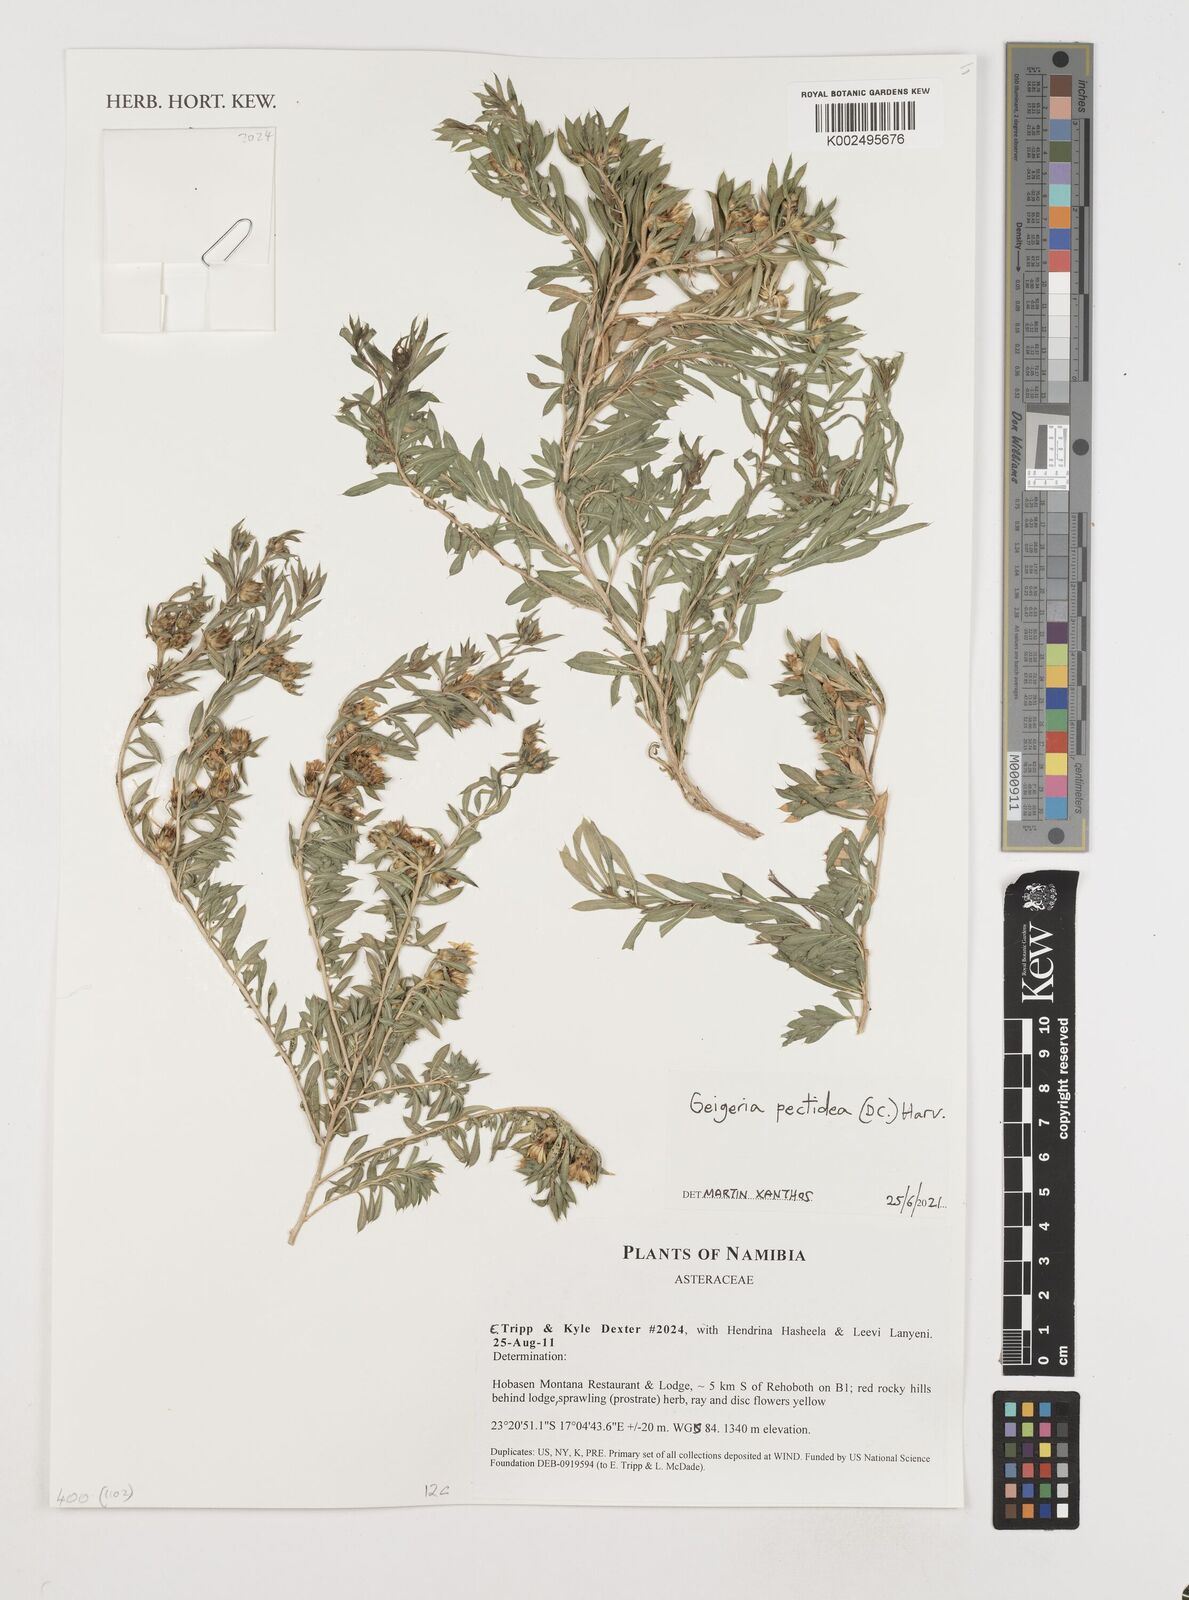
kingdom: Plantae
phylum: Tracheophyta
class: Magnoliopsida
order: Asterales
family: Asteraceae
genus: Geigeria
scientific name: Geigeria pectidea
